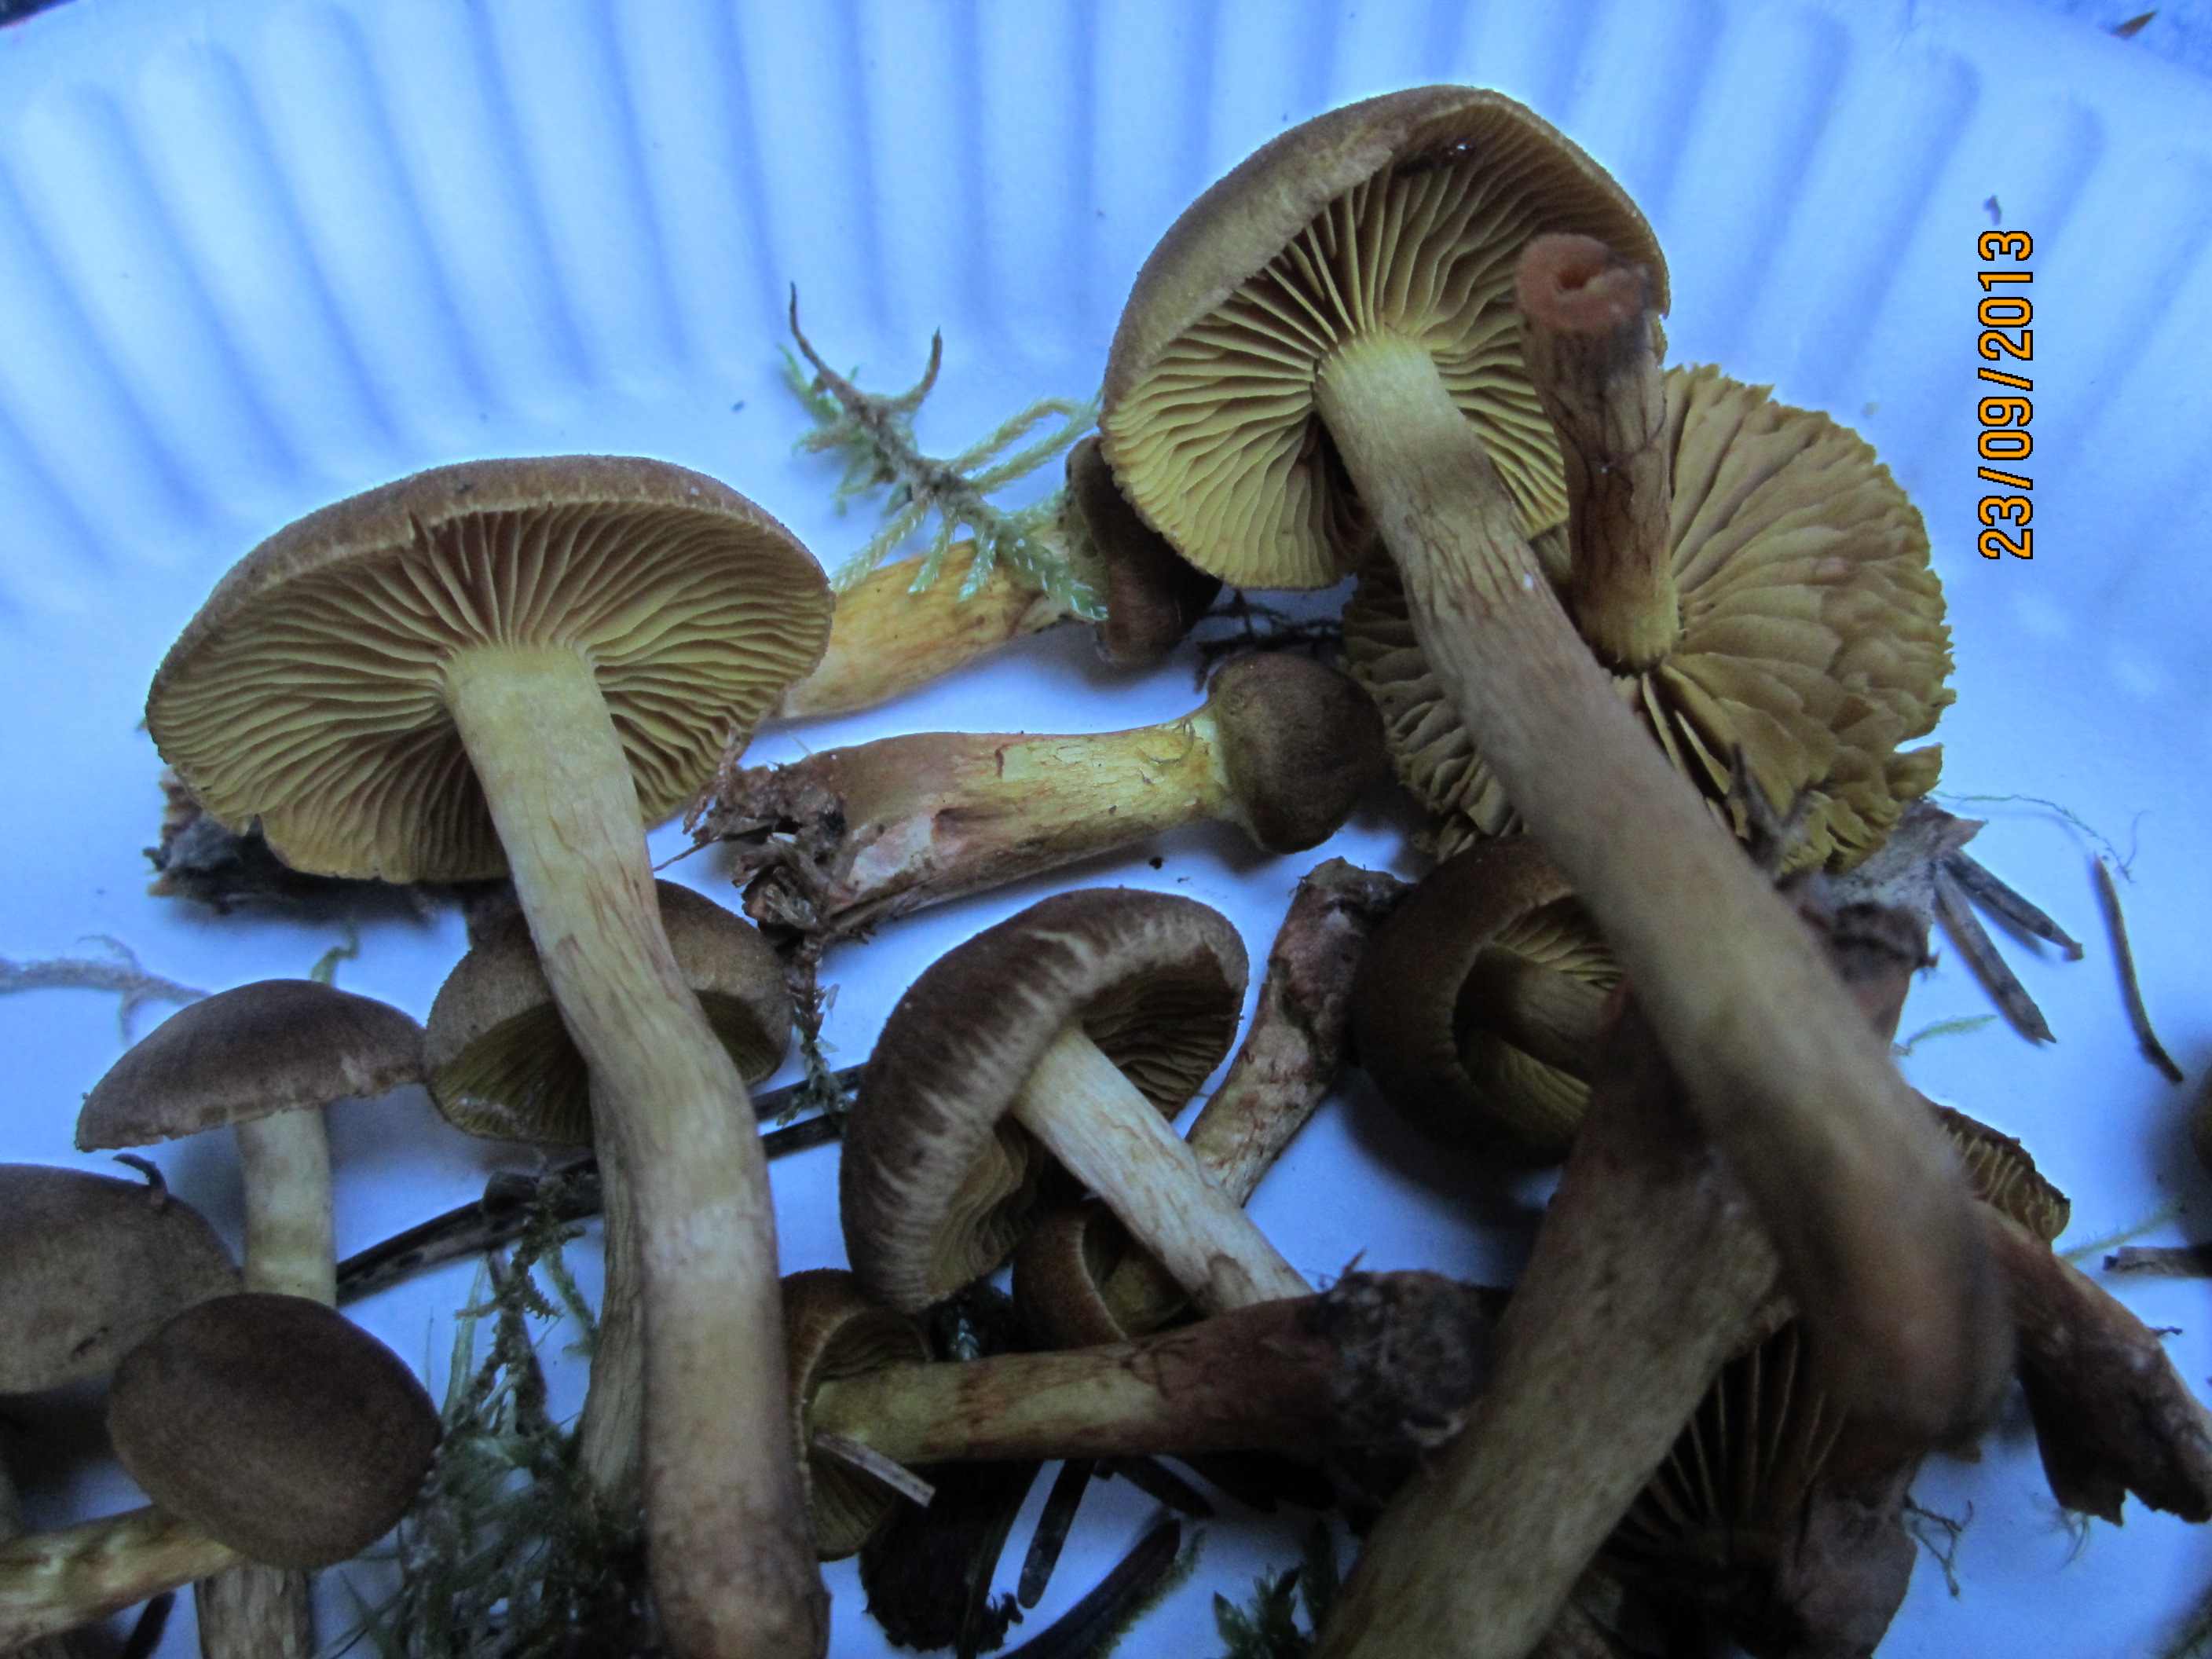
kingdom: Fungi
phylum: Basidiomycota
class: Agaricomycetes
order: Agaricales
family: Cortinariaceae
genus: Cortinarius
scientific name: Cortinarius
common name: gulbladet slørhat
